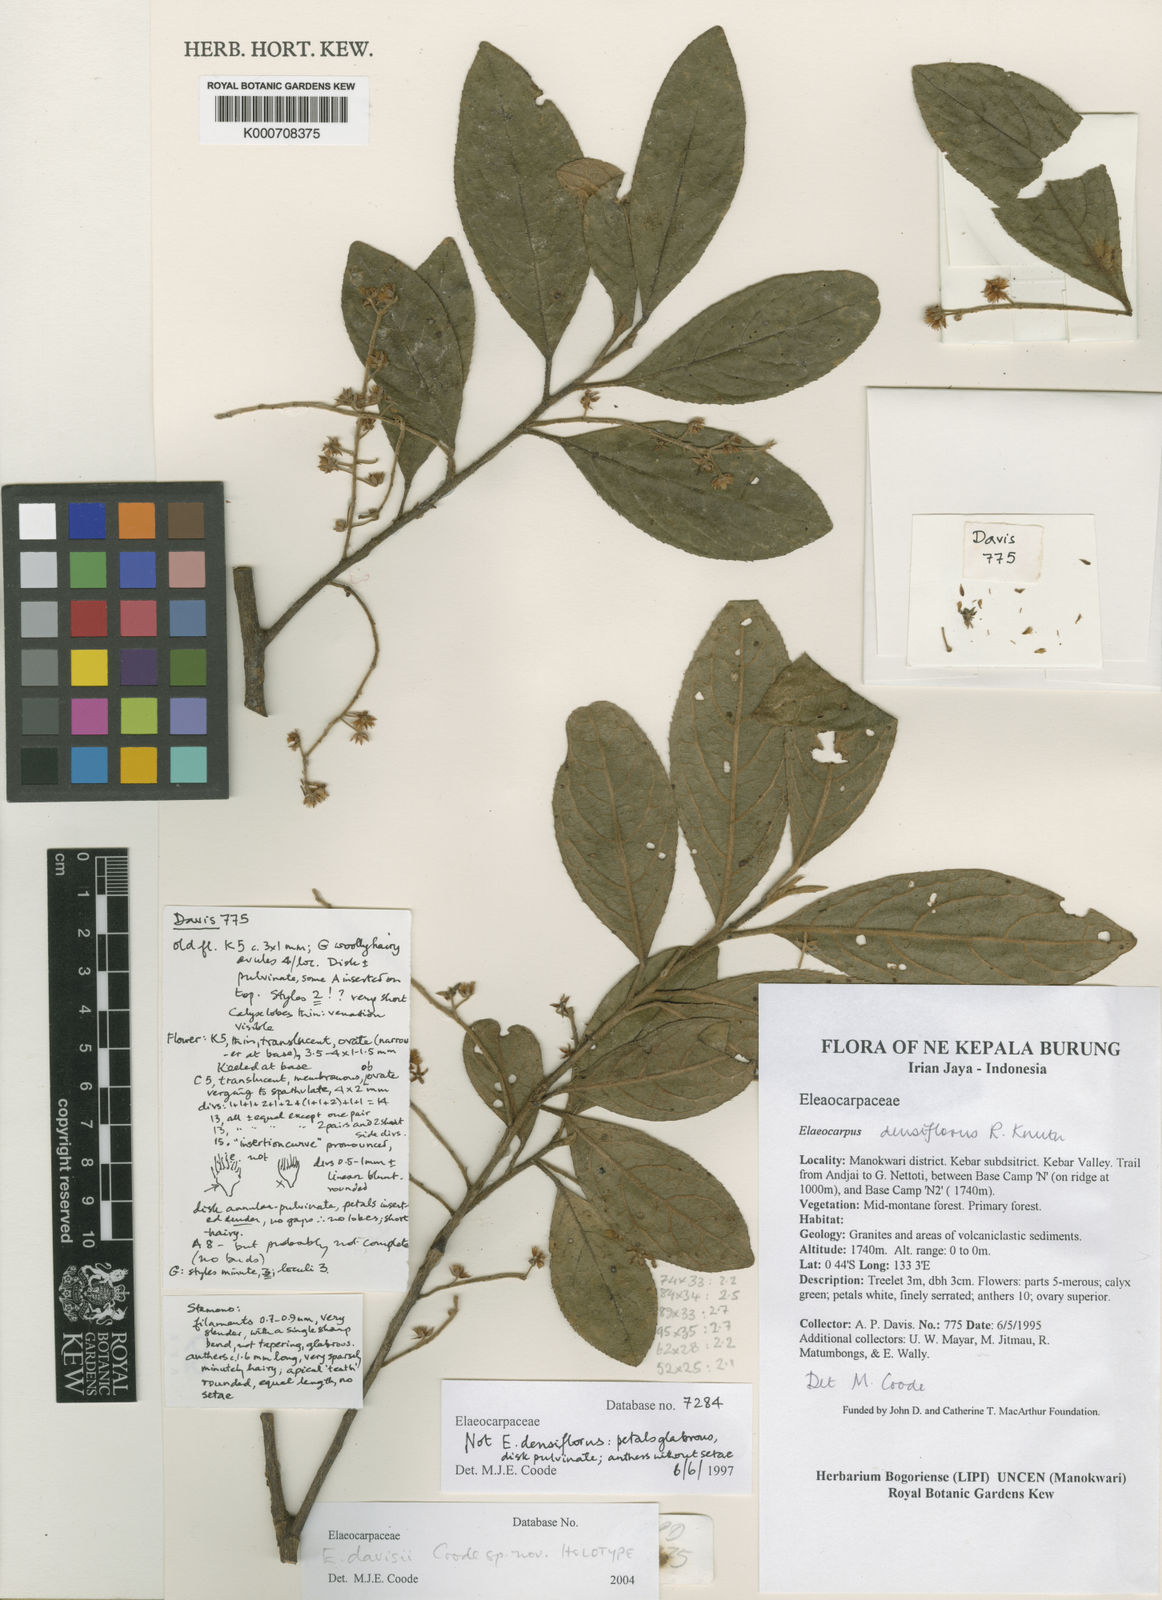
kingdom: Plantae
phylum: Tracheophyta
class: Magnoliopsida
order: Oxalidales
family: Elaeocarpaceae
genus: Elaeocarpus
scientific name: Elaeocarpus
